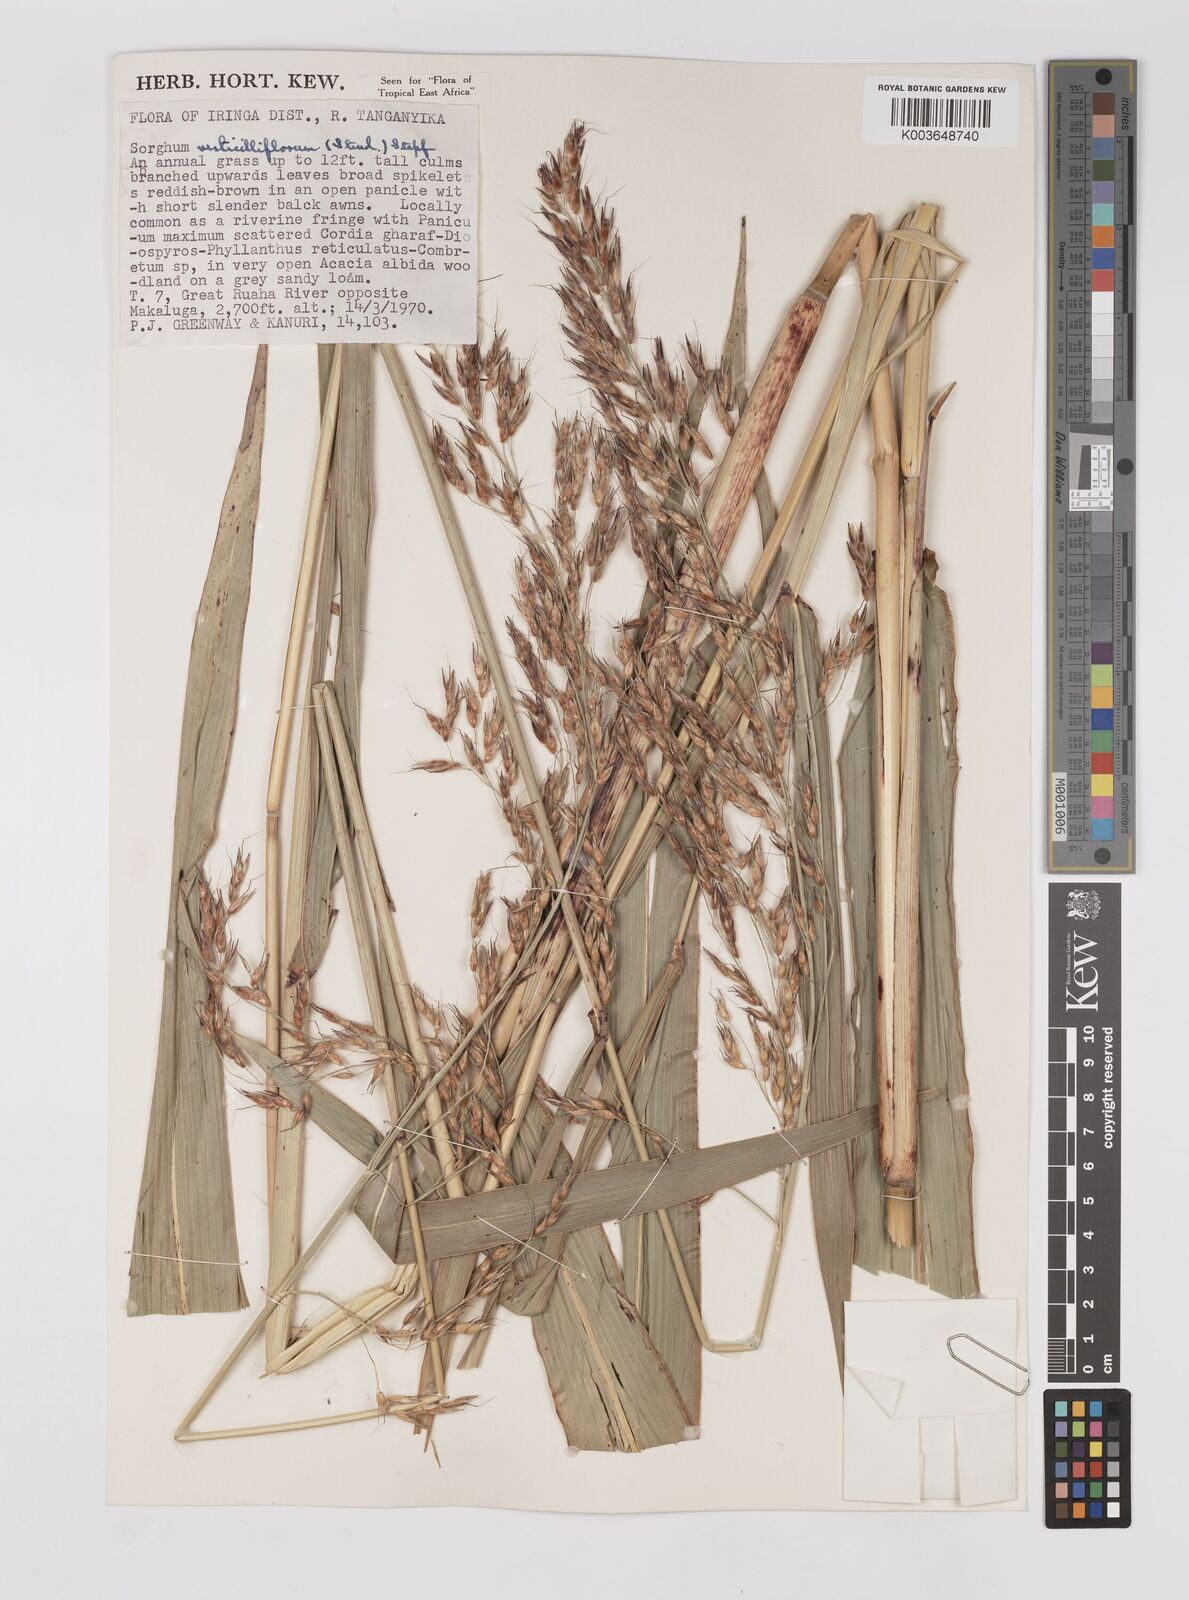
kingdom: Plantae
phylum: Tracheophyta
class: Liliopsida
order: Poales
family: Poaceae
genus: Sorghum
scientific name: Sorghum arundinaceum
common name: Sorghum
